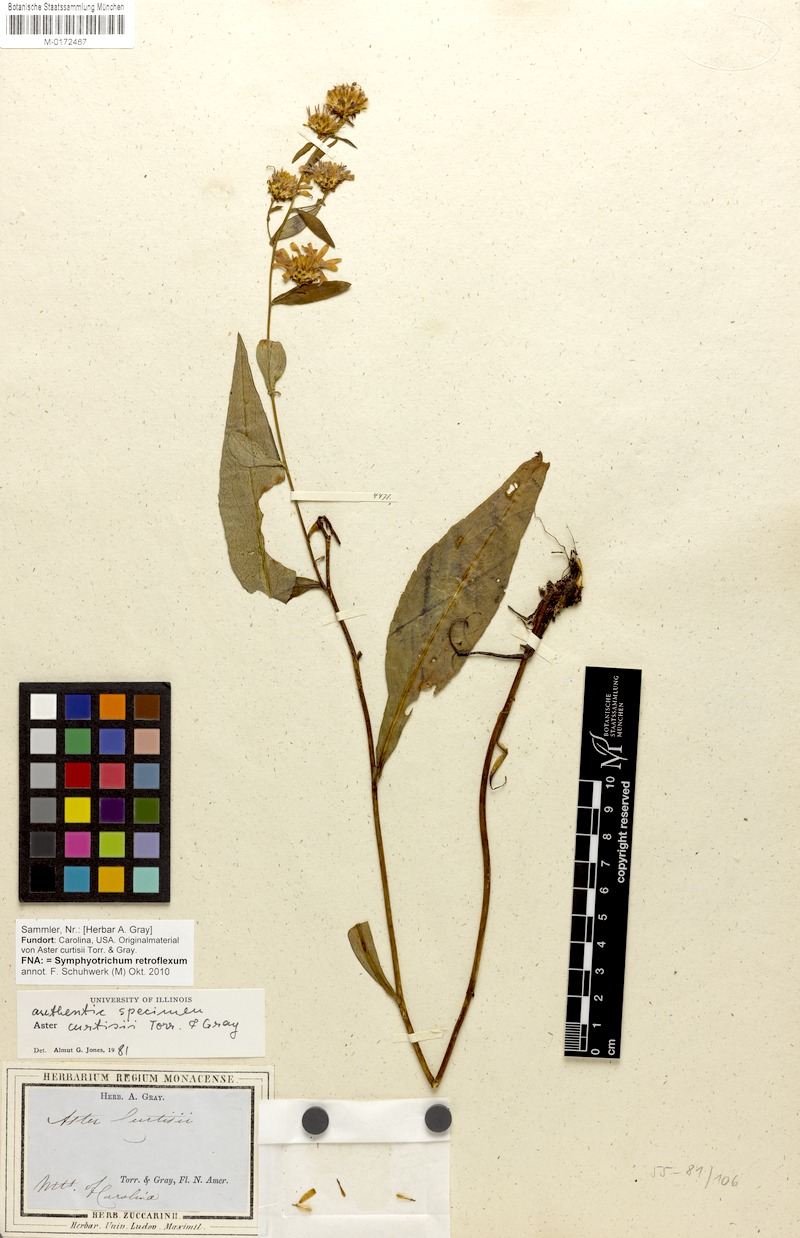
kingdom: Plantae
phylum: Tracheophyta
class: Magnoliopsida
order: Asterales
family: Asteraceae
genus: Symphyotrichum
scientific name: Symphyotrichum retroflexum
